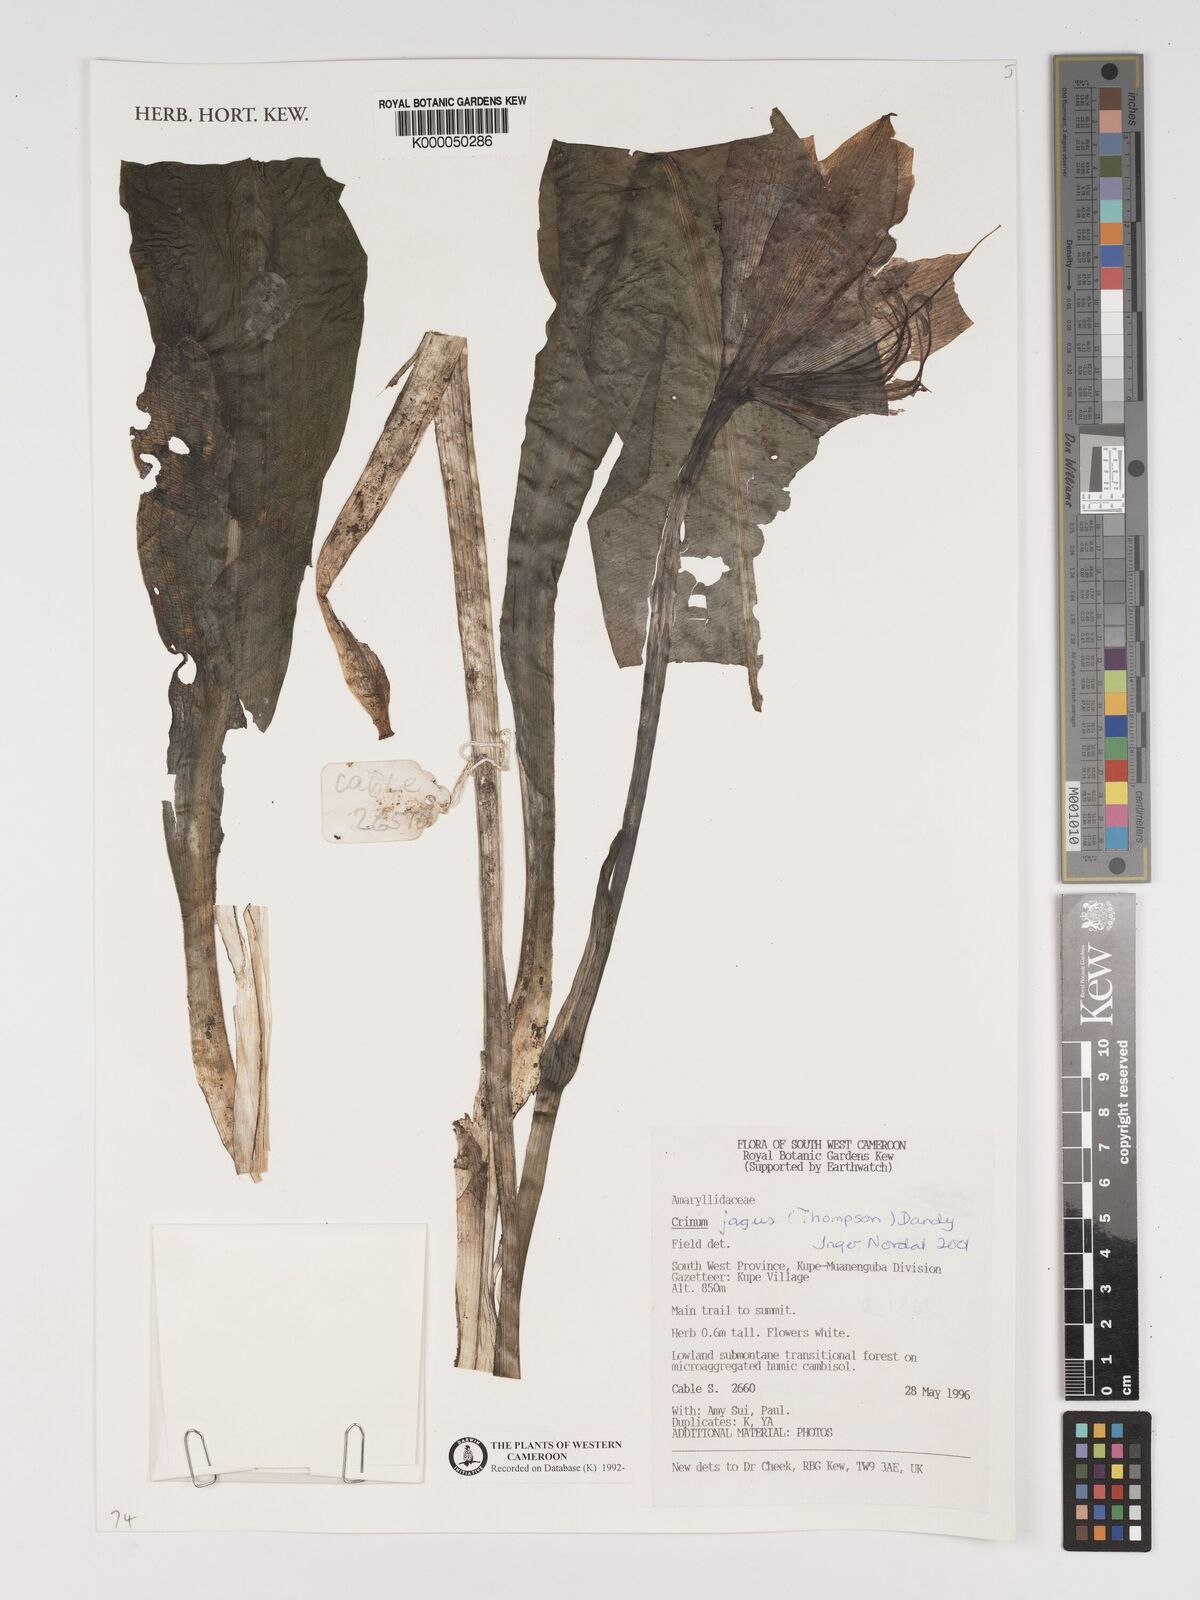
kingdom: Plantae
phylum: Tracheophyta
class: Liliopsida
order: Asparagales
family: Amaryllidaceae
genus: Crinum
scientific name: Crinum jagus
